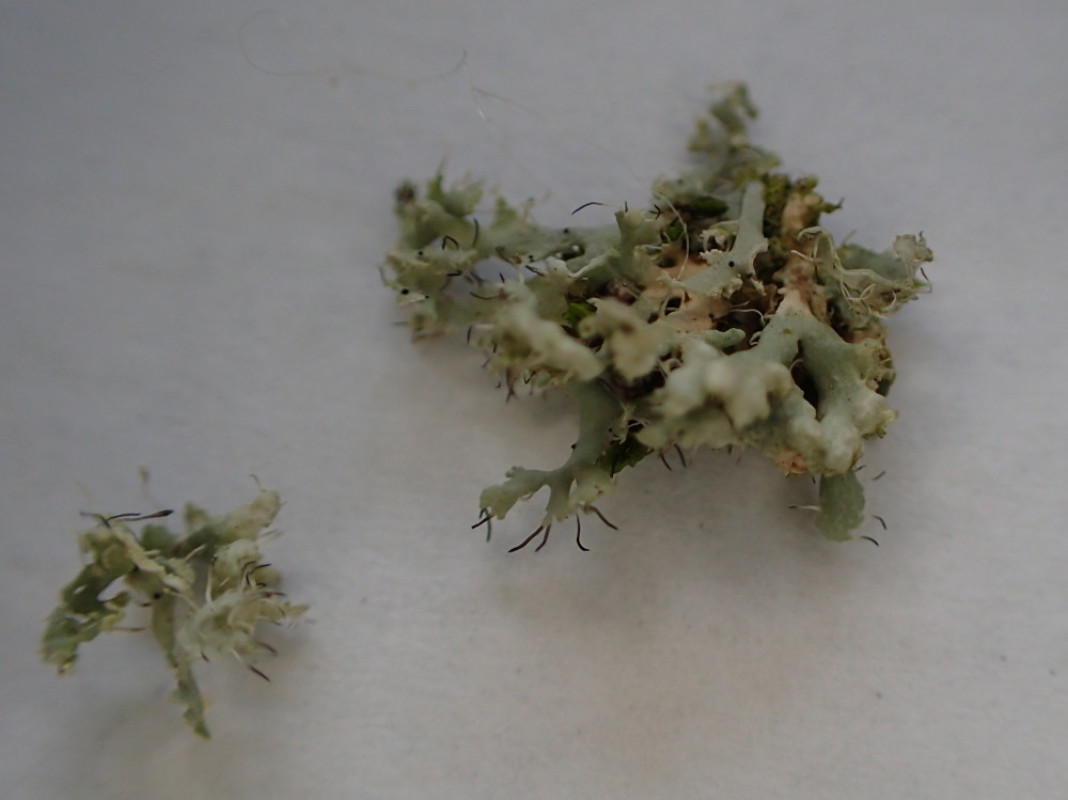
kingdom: Fungi
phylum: Ascomycota
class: Lecanoromycetes
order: Caliciales
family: Physciaceae
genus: Physcia
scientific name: Physcia adscendens
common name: hætte-rosetlav
